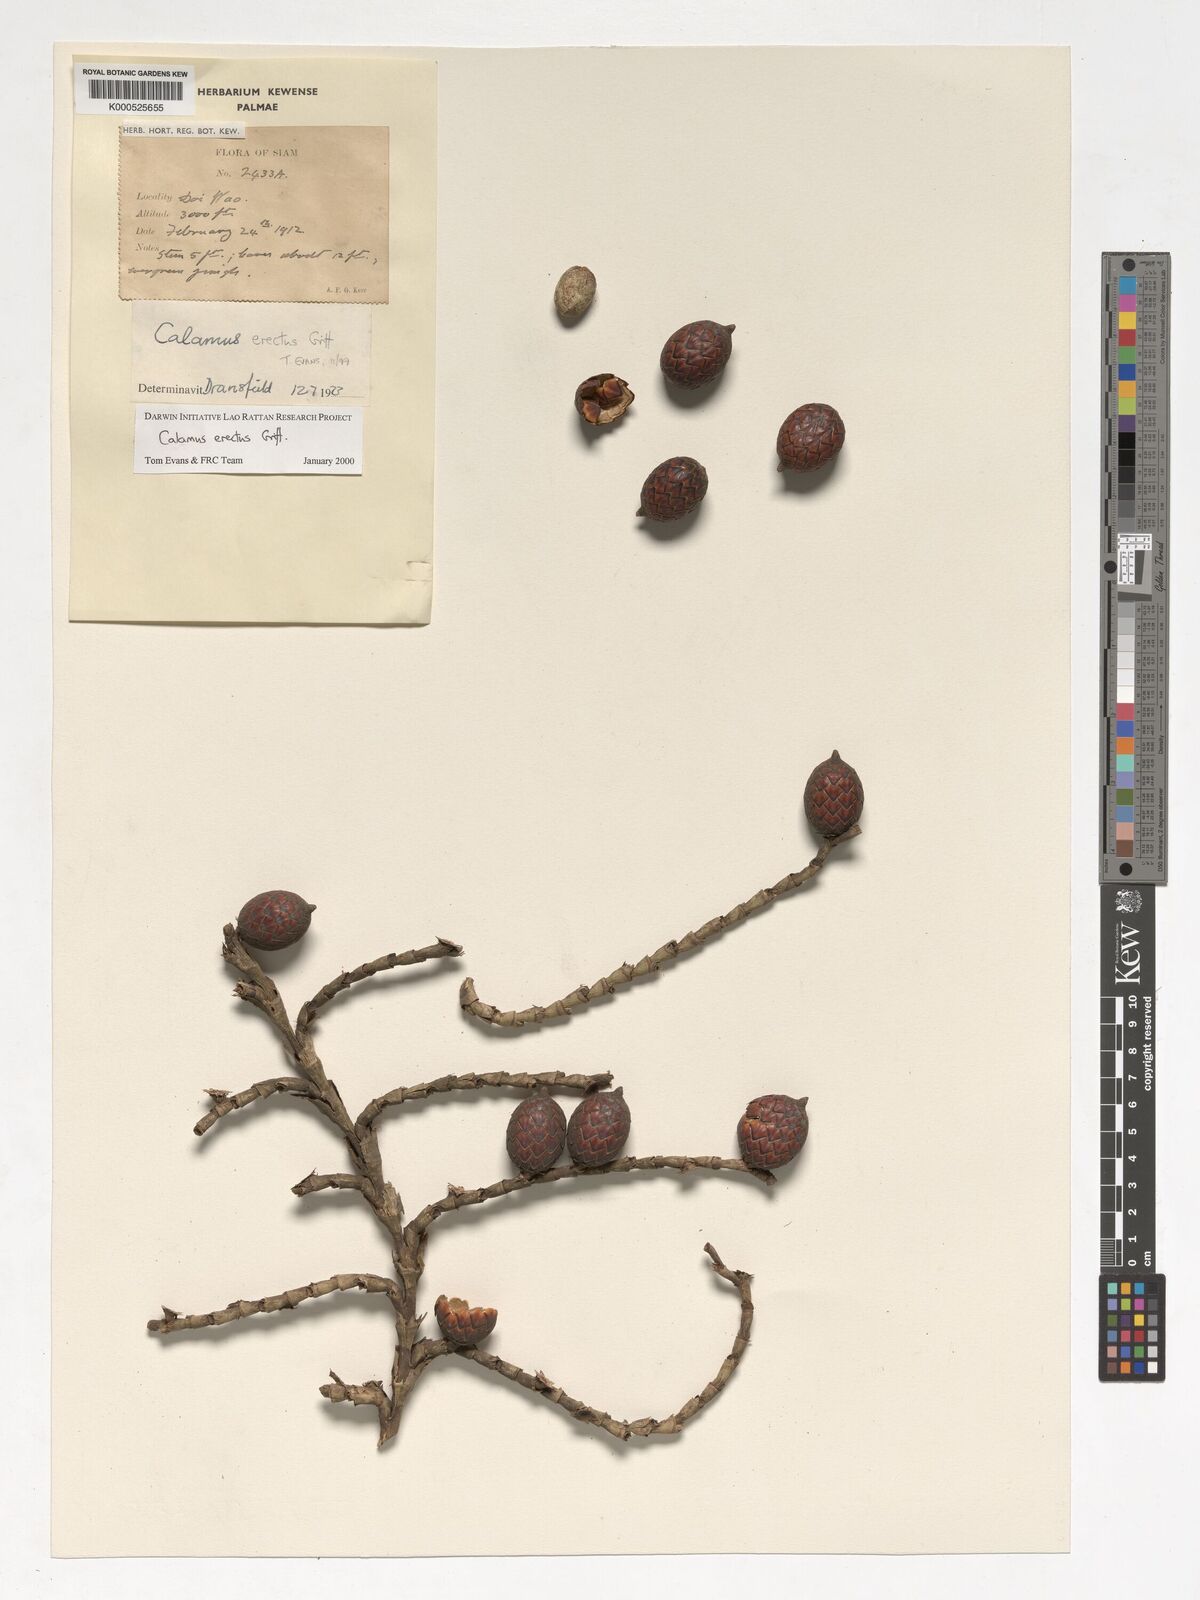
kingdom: Plantae
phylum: Tracheophyta
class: Liliopsida
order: Arecales
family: Arecaceae
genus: Calamus
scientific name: Calamus erectus
